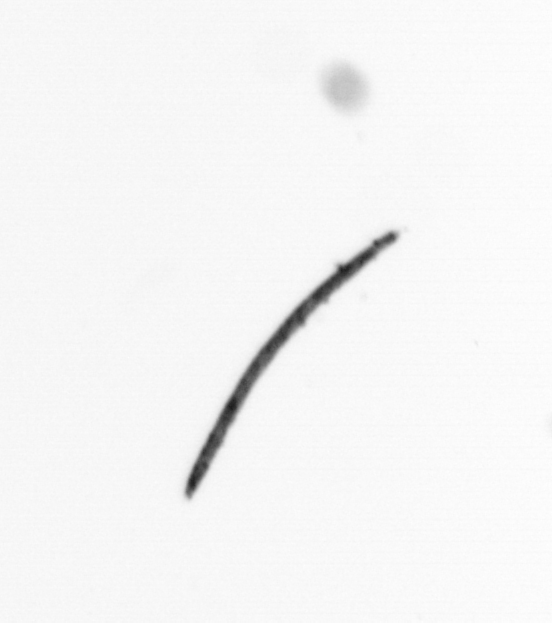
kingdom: Bacteria
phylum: Cyanobacteria
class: Cyanobacteriia
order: Cyanobacteriales
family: Microcoleaceae
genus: Trichodesmium
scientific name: Trichodesmium
